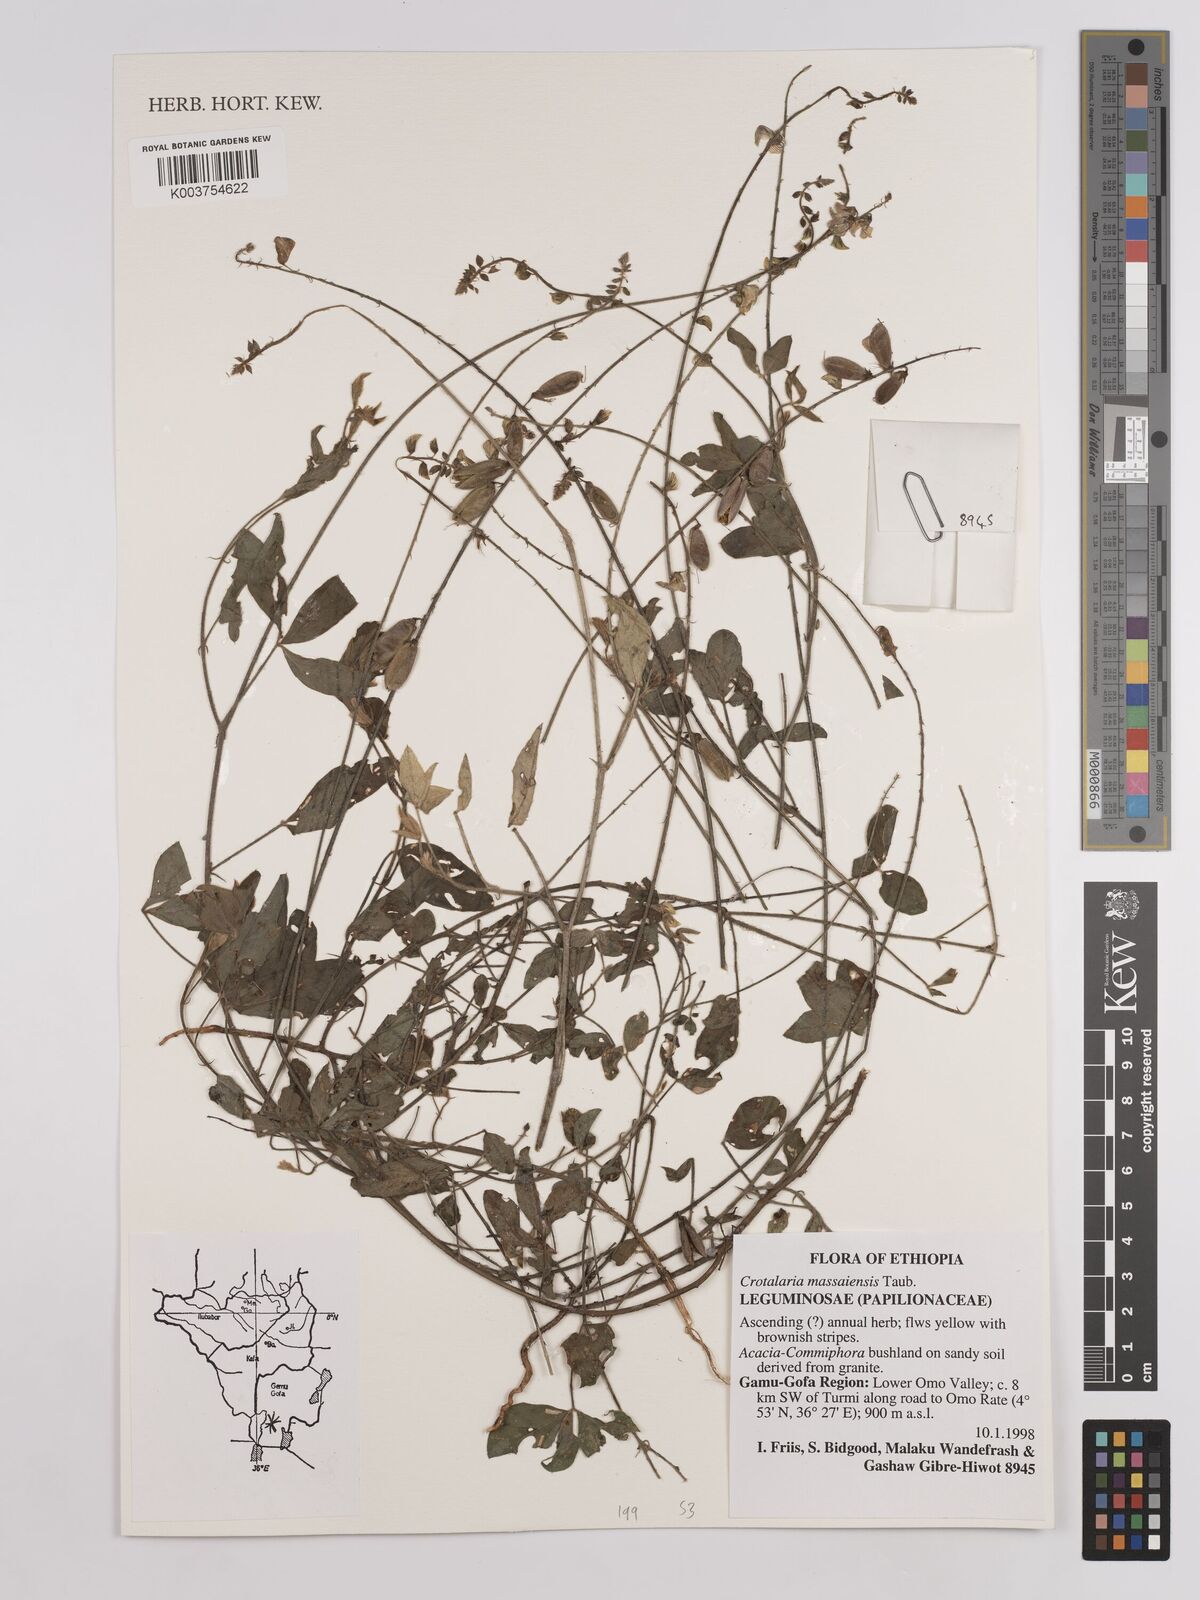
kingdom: Plantae
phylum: Tracheophyta
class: Magnoliopsida
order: Fabales
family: Fabaceae
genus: Crotalaria
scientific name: Crotalaria massaiensis
